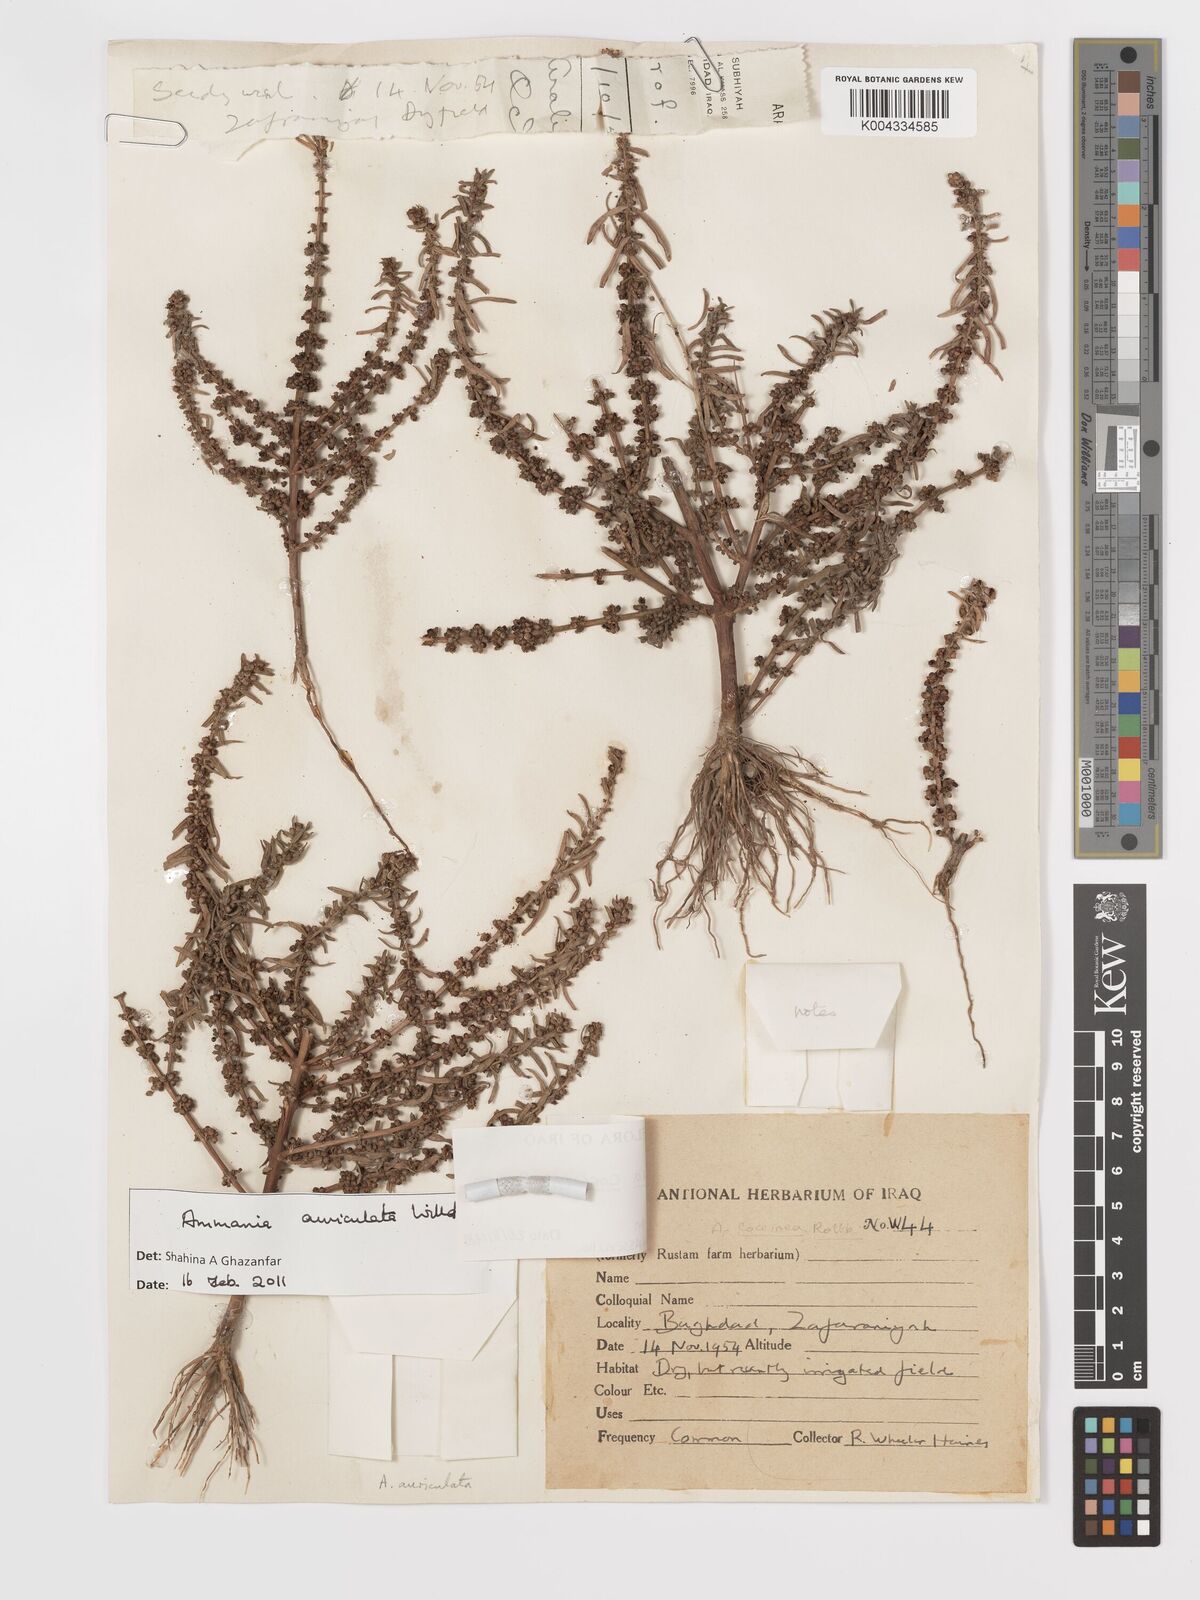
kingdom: Plantae
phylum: Tracheophyta
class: Magnoliopsida
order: Myrtales
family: Lythraceae
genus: Ammannia
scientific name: Ammannia auriculata
